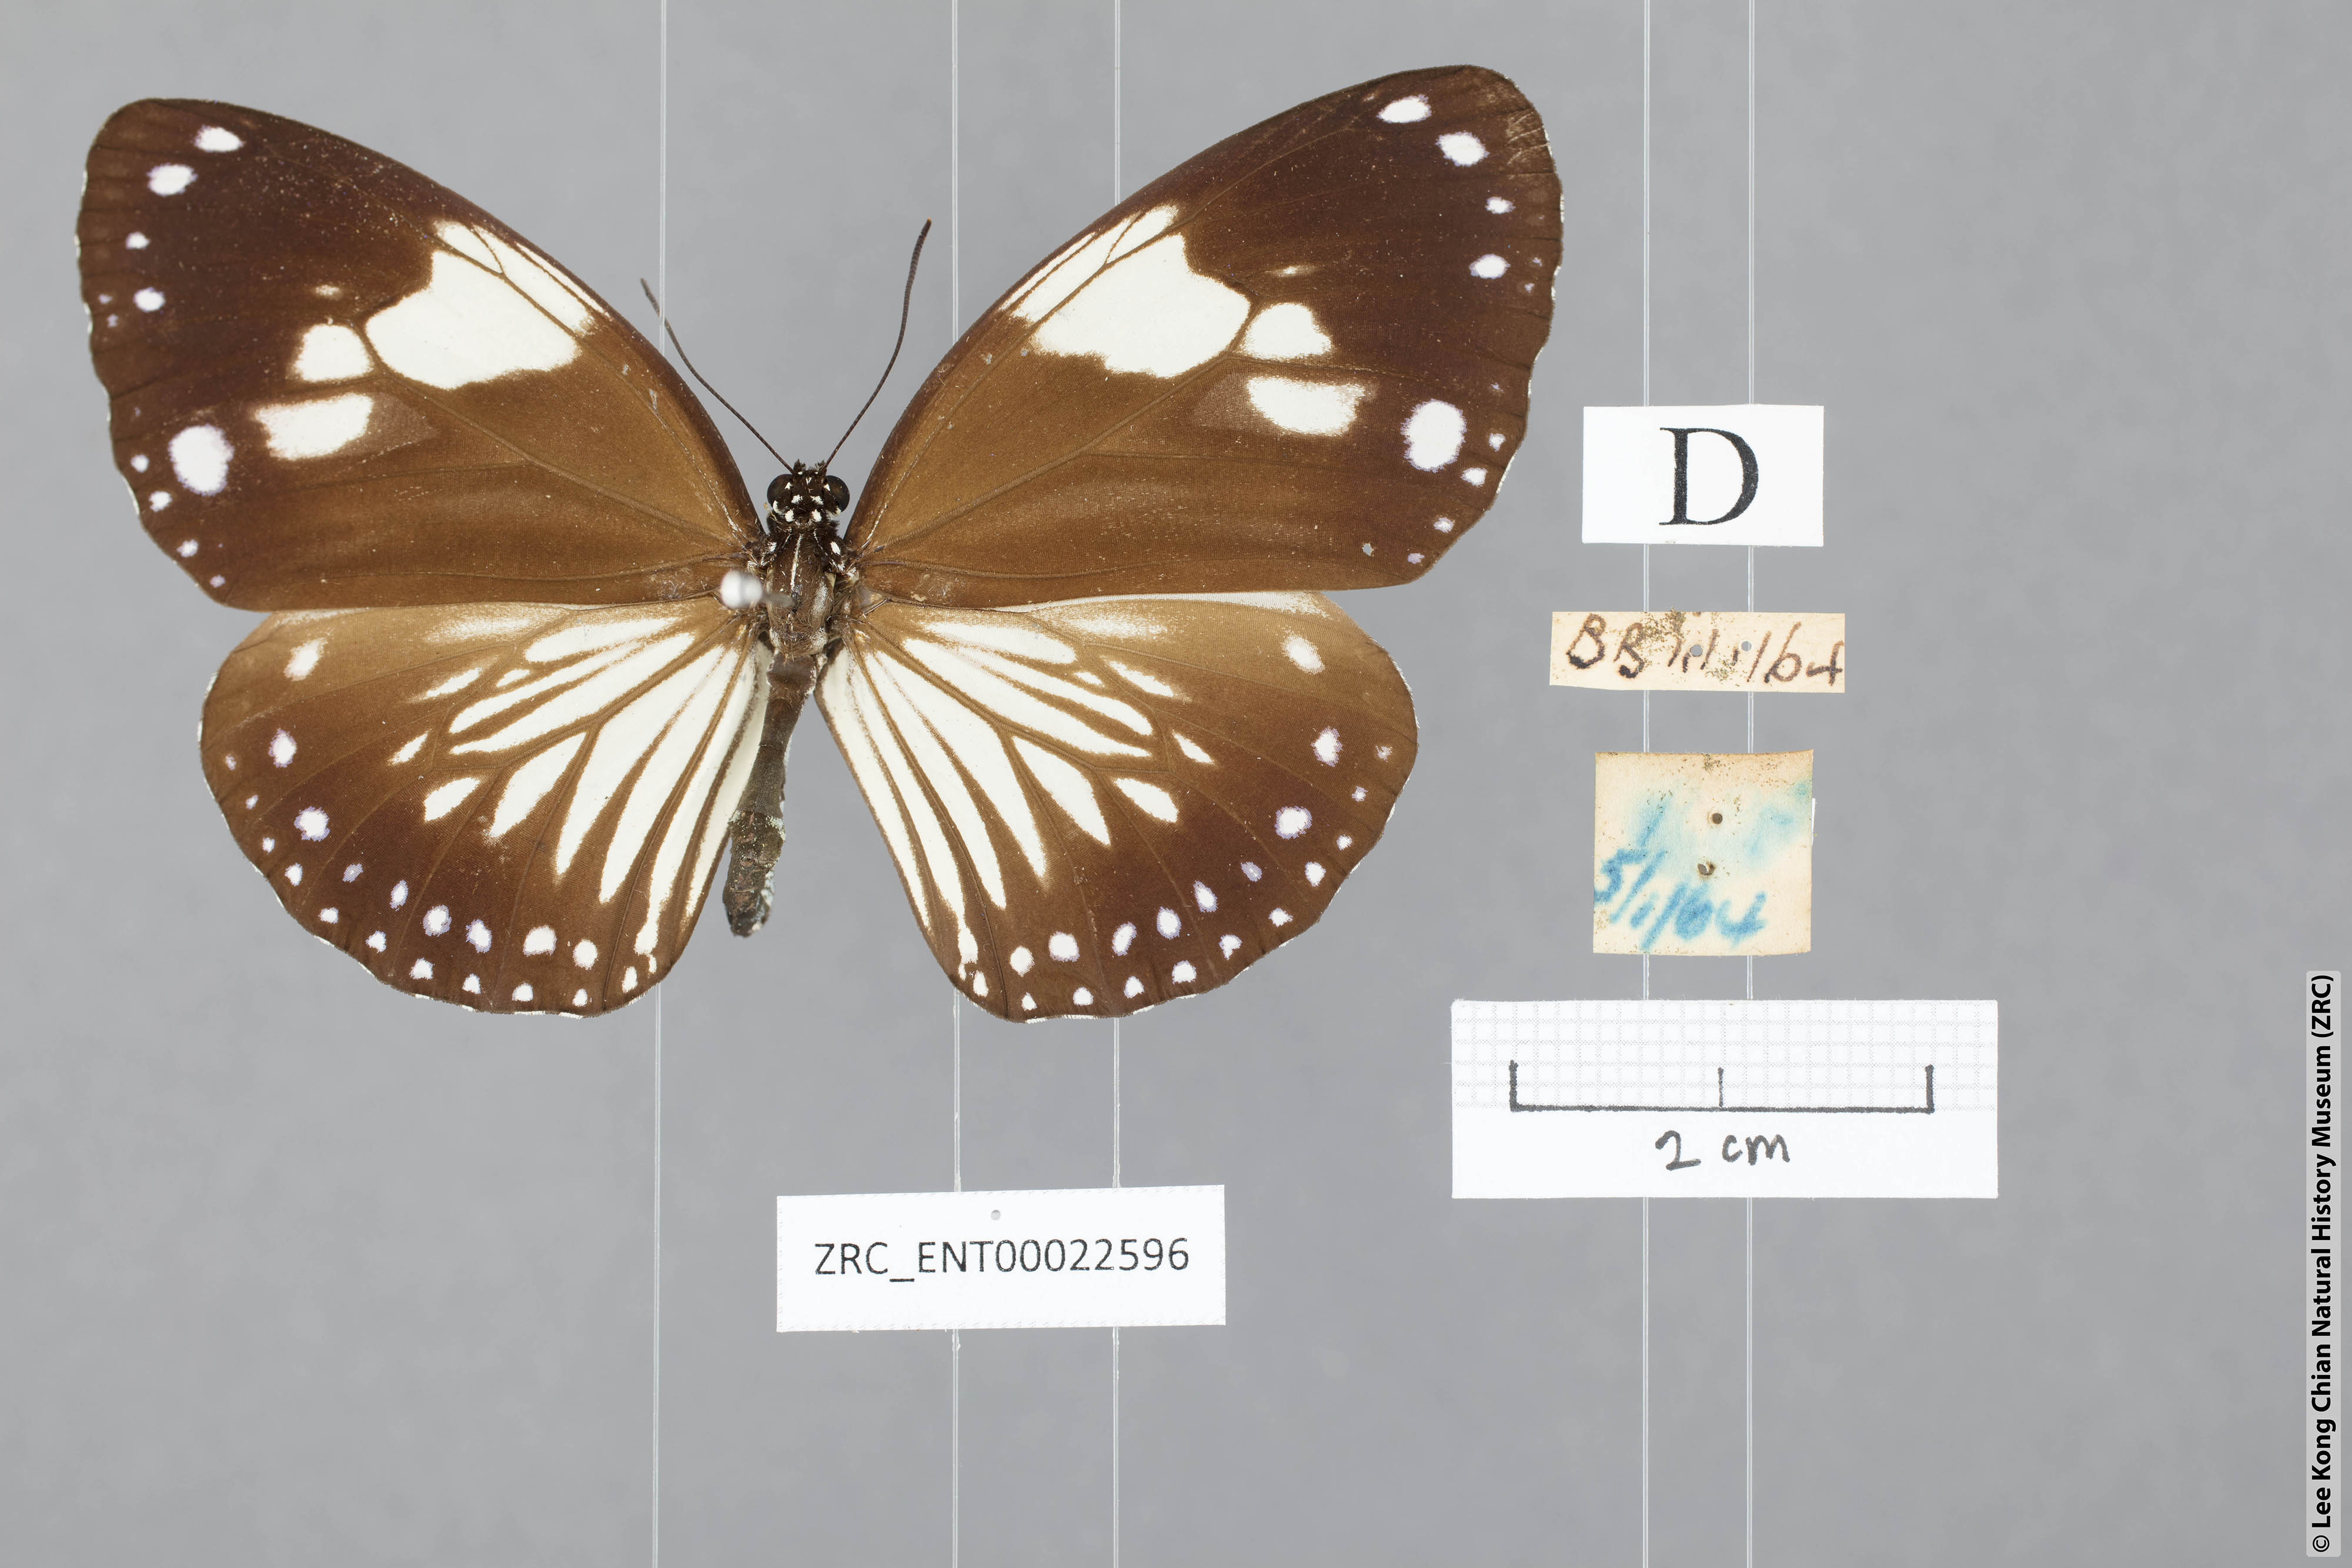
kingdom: Animalia
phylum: Arthropoda
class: Insecta
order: Lepidoptera
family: Nymphalidae
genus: Euploea
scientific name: Euploea diocletia
